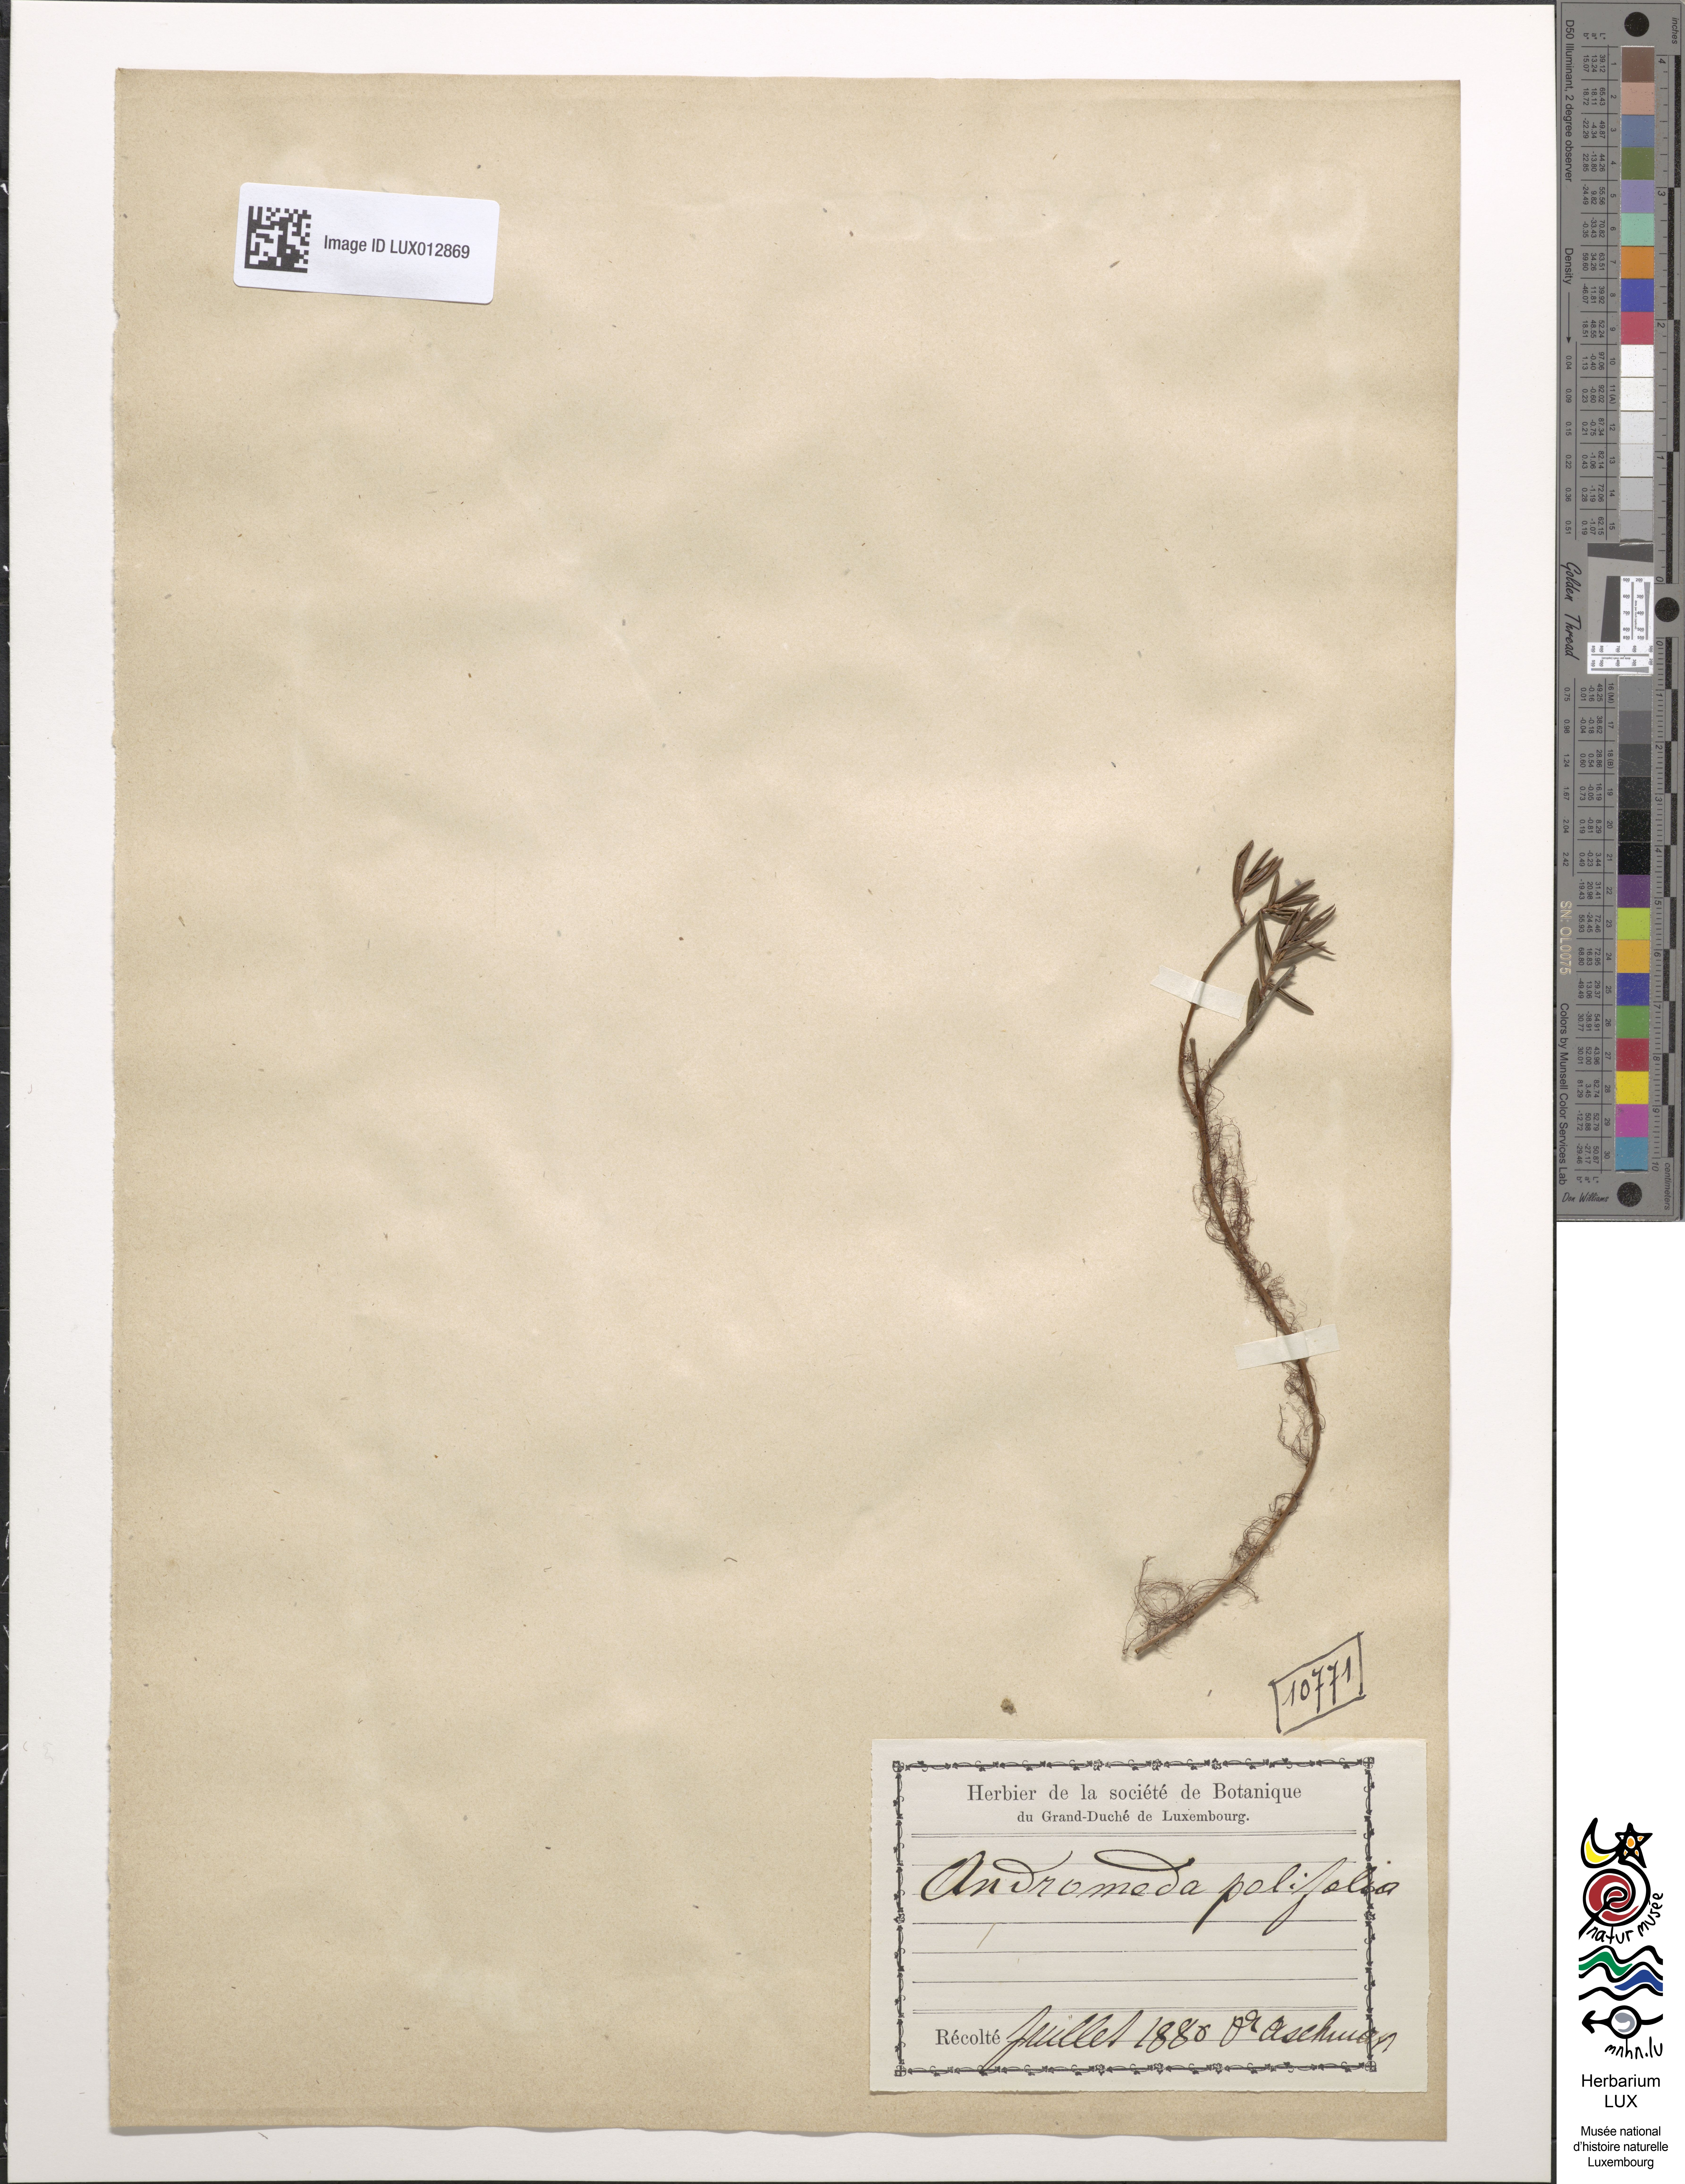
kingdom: Plantae
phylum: Tracheophyta
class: Magnoliopsida
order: Ericales
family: Ericaceae
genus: Andromeda
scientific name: Andromeda polifolia
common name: Bog-rosemary
